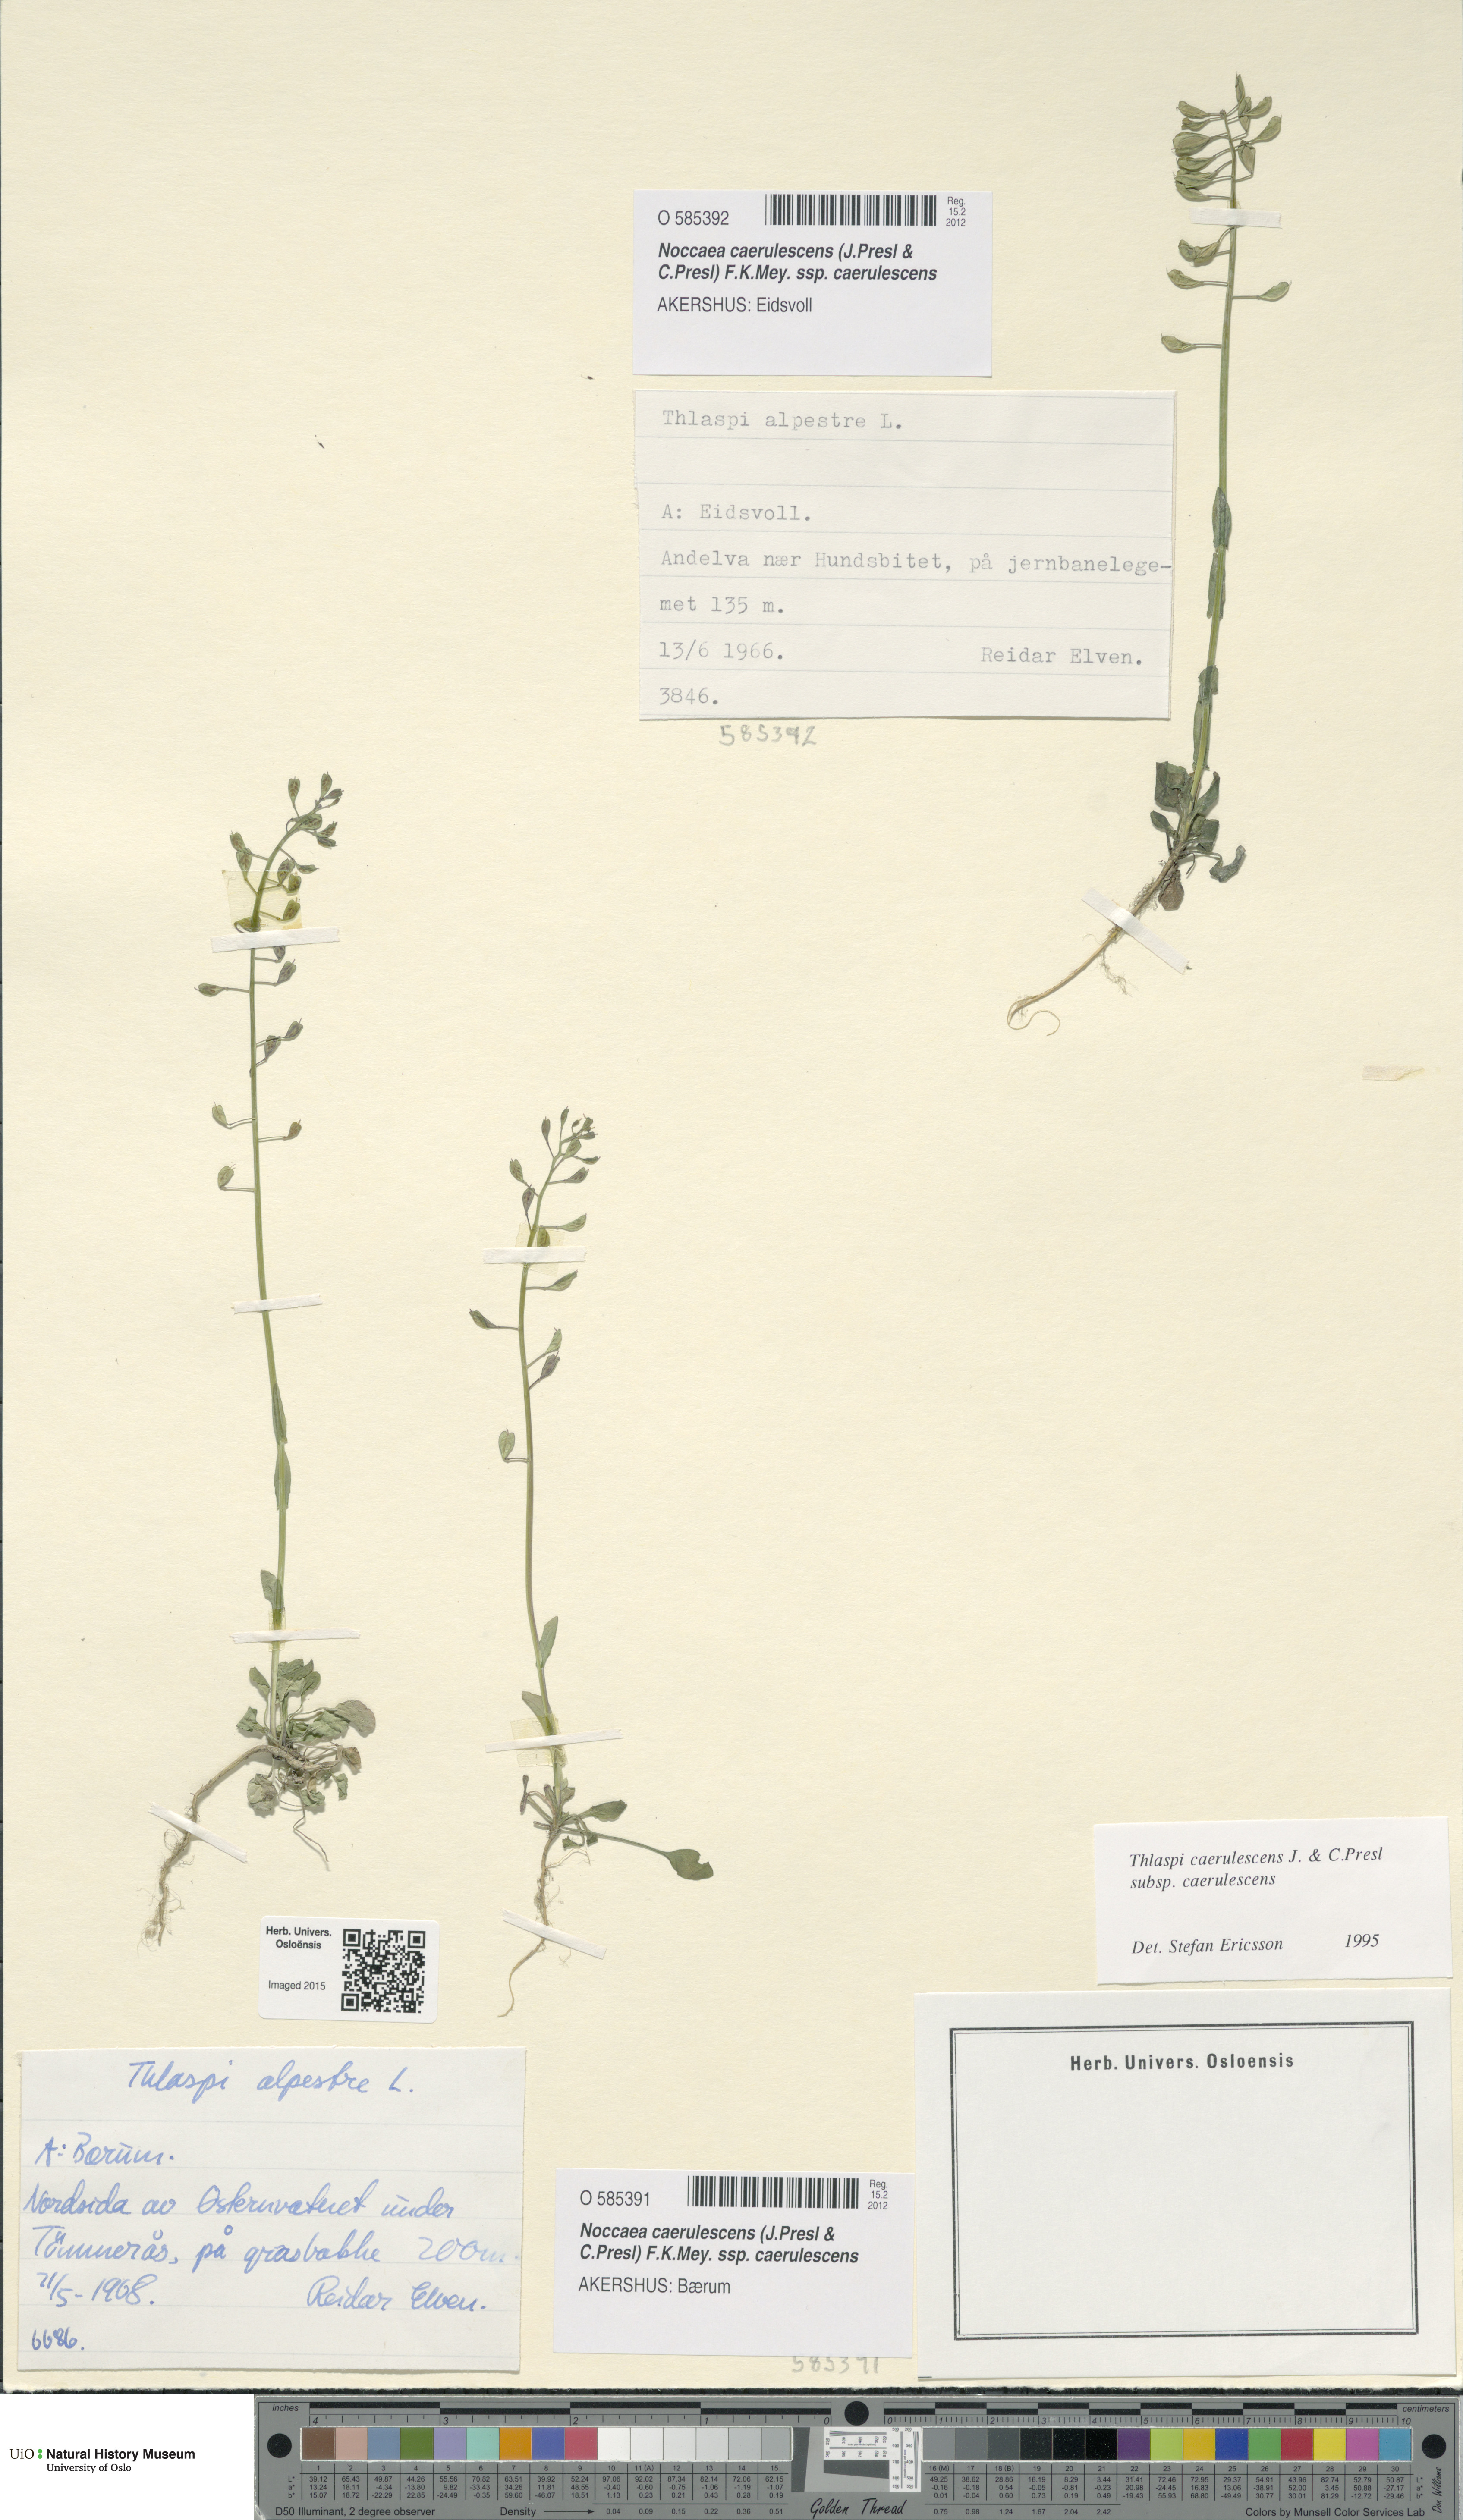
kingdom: Plantae
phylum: Tracheophyta
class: Magnoliopsida
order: Brassicales
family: Brassicaceae
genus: Noccaea
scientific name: Noccaea caerulescens
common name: Alpine pennycress
